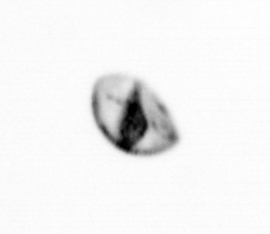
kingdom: Chromista
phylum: Ochrophyta
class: Bacillariophyceae
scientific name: Bacillariophyceae
